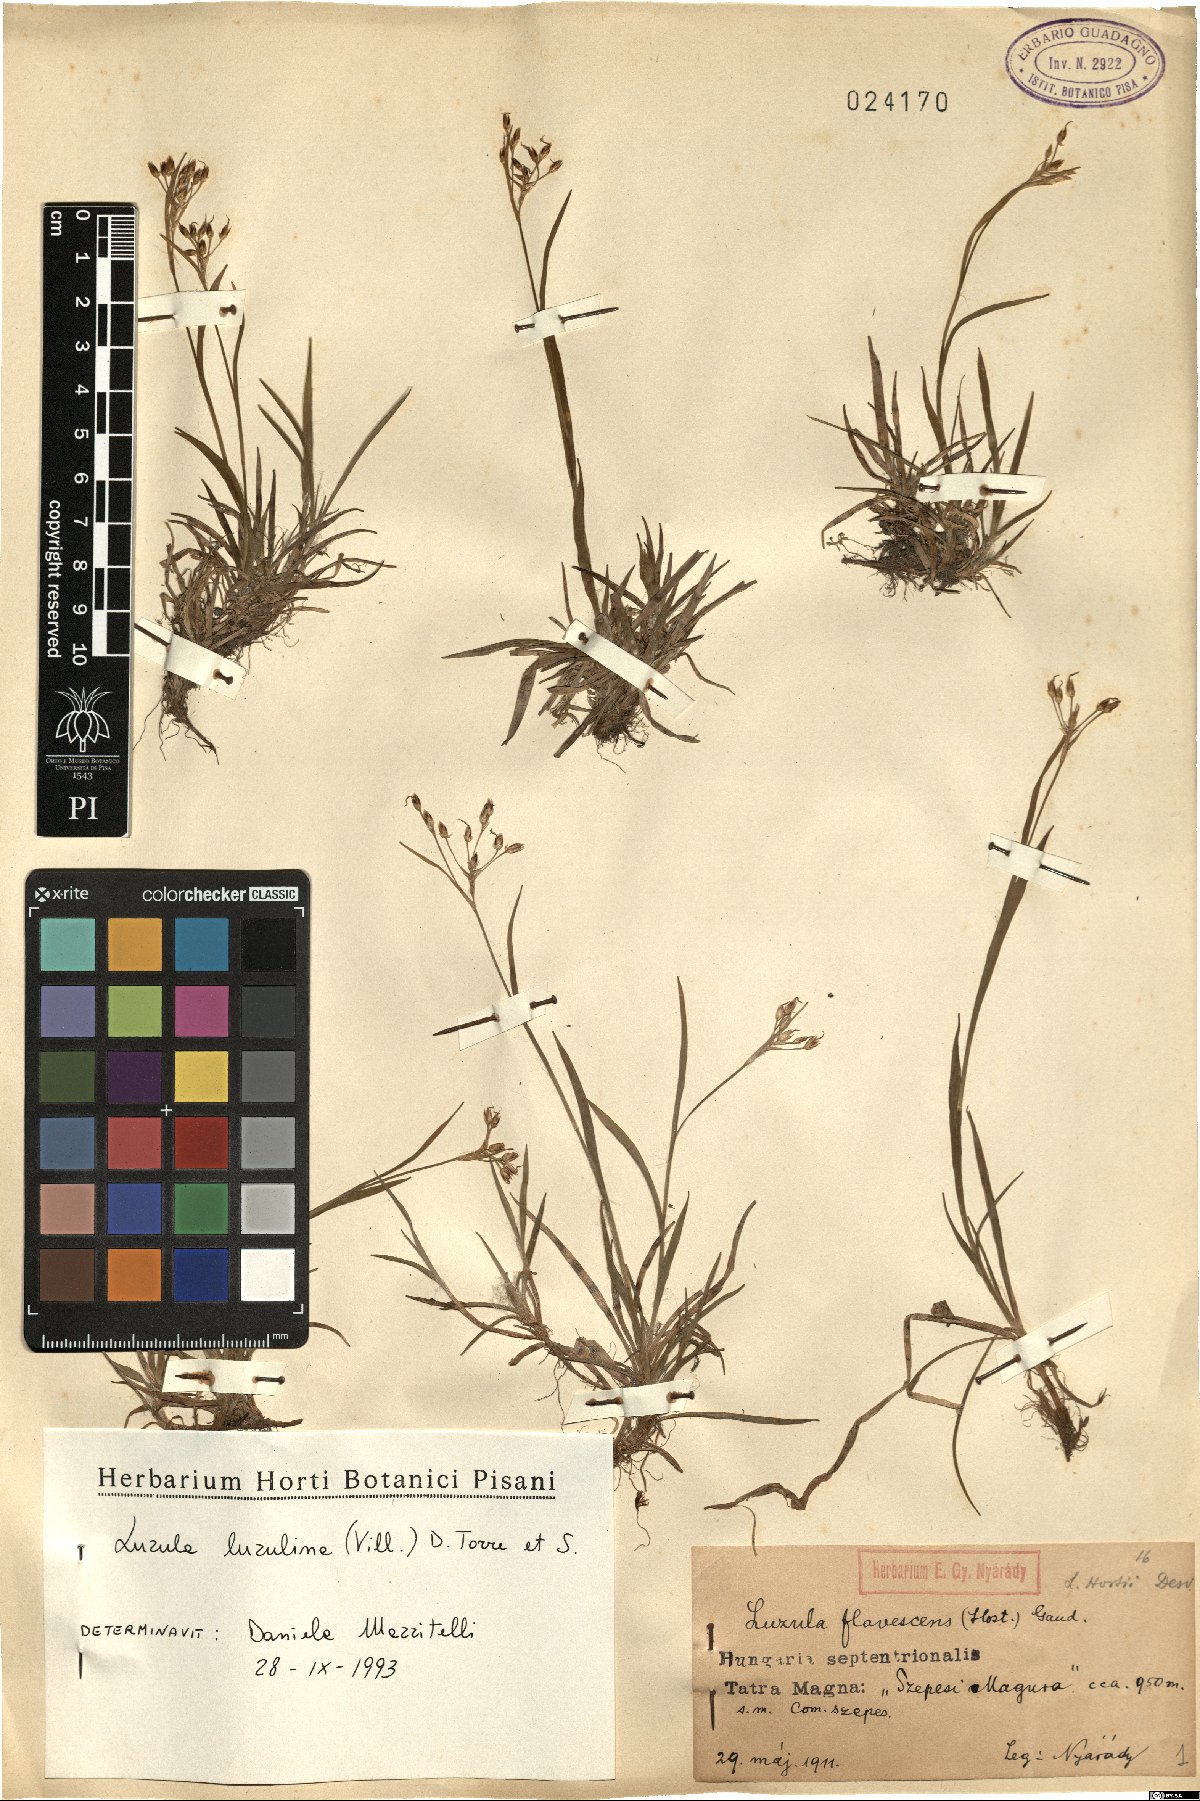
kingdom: Plantae
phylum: Tracheophyta
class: Liliopsida
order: Poales
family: Juncaceae
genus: Luzula
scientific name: Luzula luzulina
